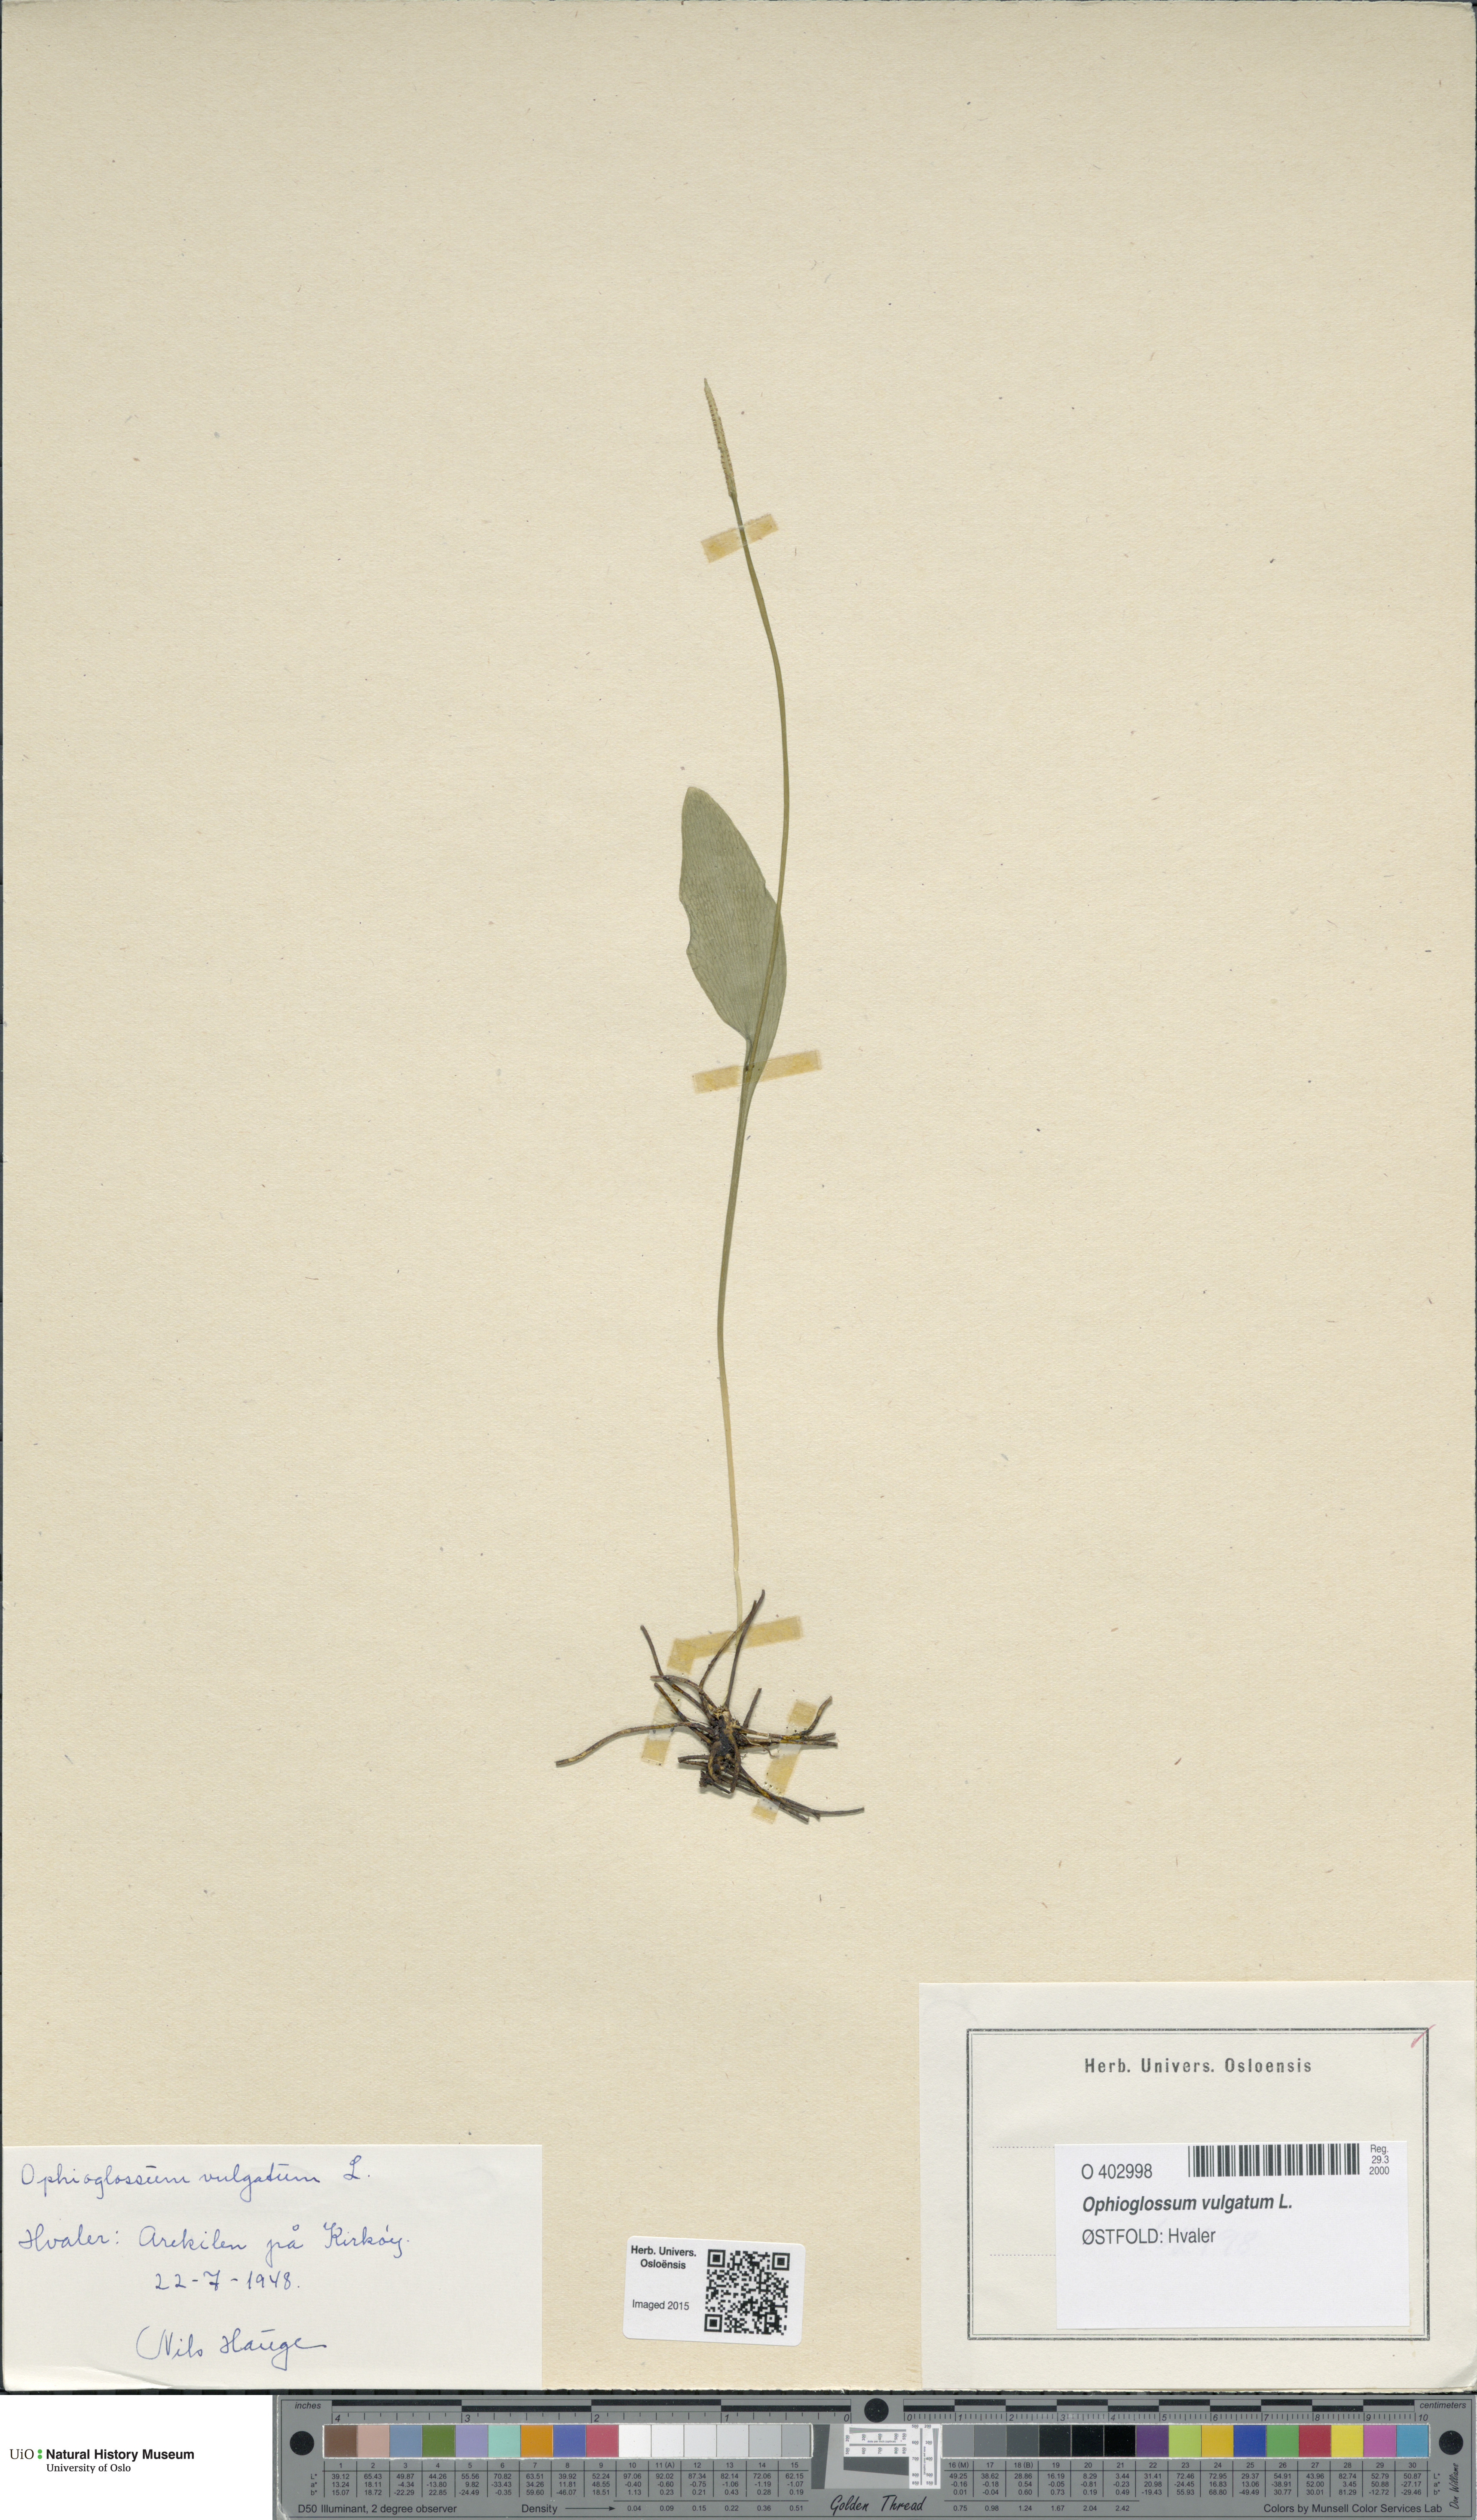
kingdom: Plantae
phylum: Tracheophyta
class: Polypodiopsida
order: Ophioglossales
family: Ophioglossaceae
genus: Ophioglossum
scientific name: Ophioglossum vulgatum
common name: Adder's-tongue
